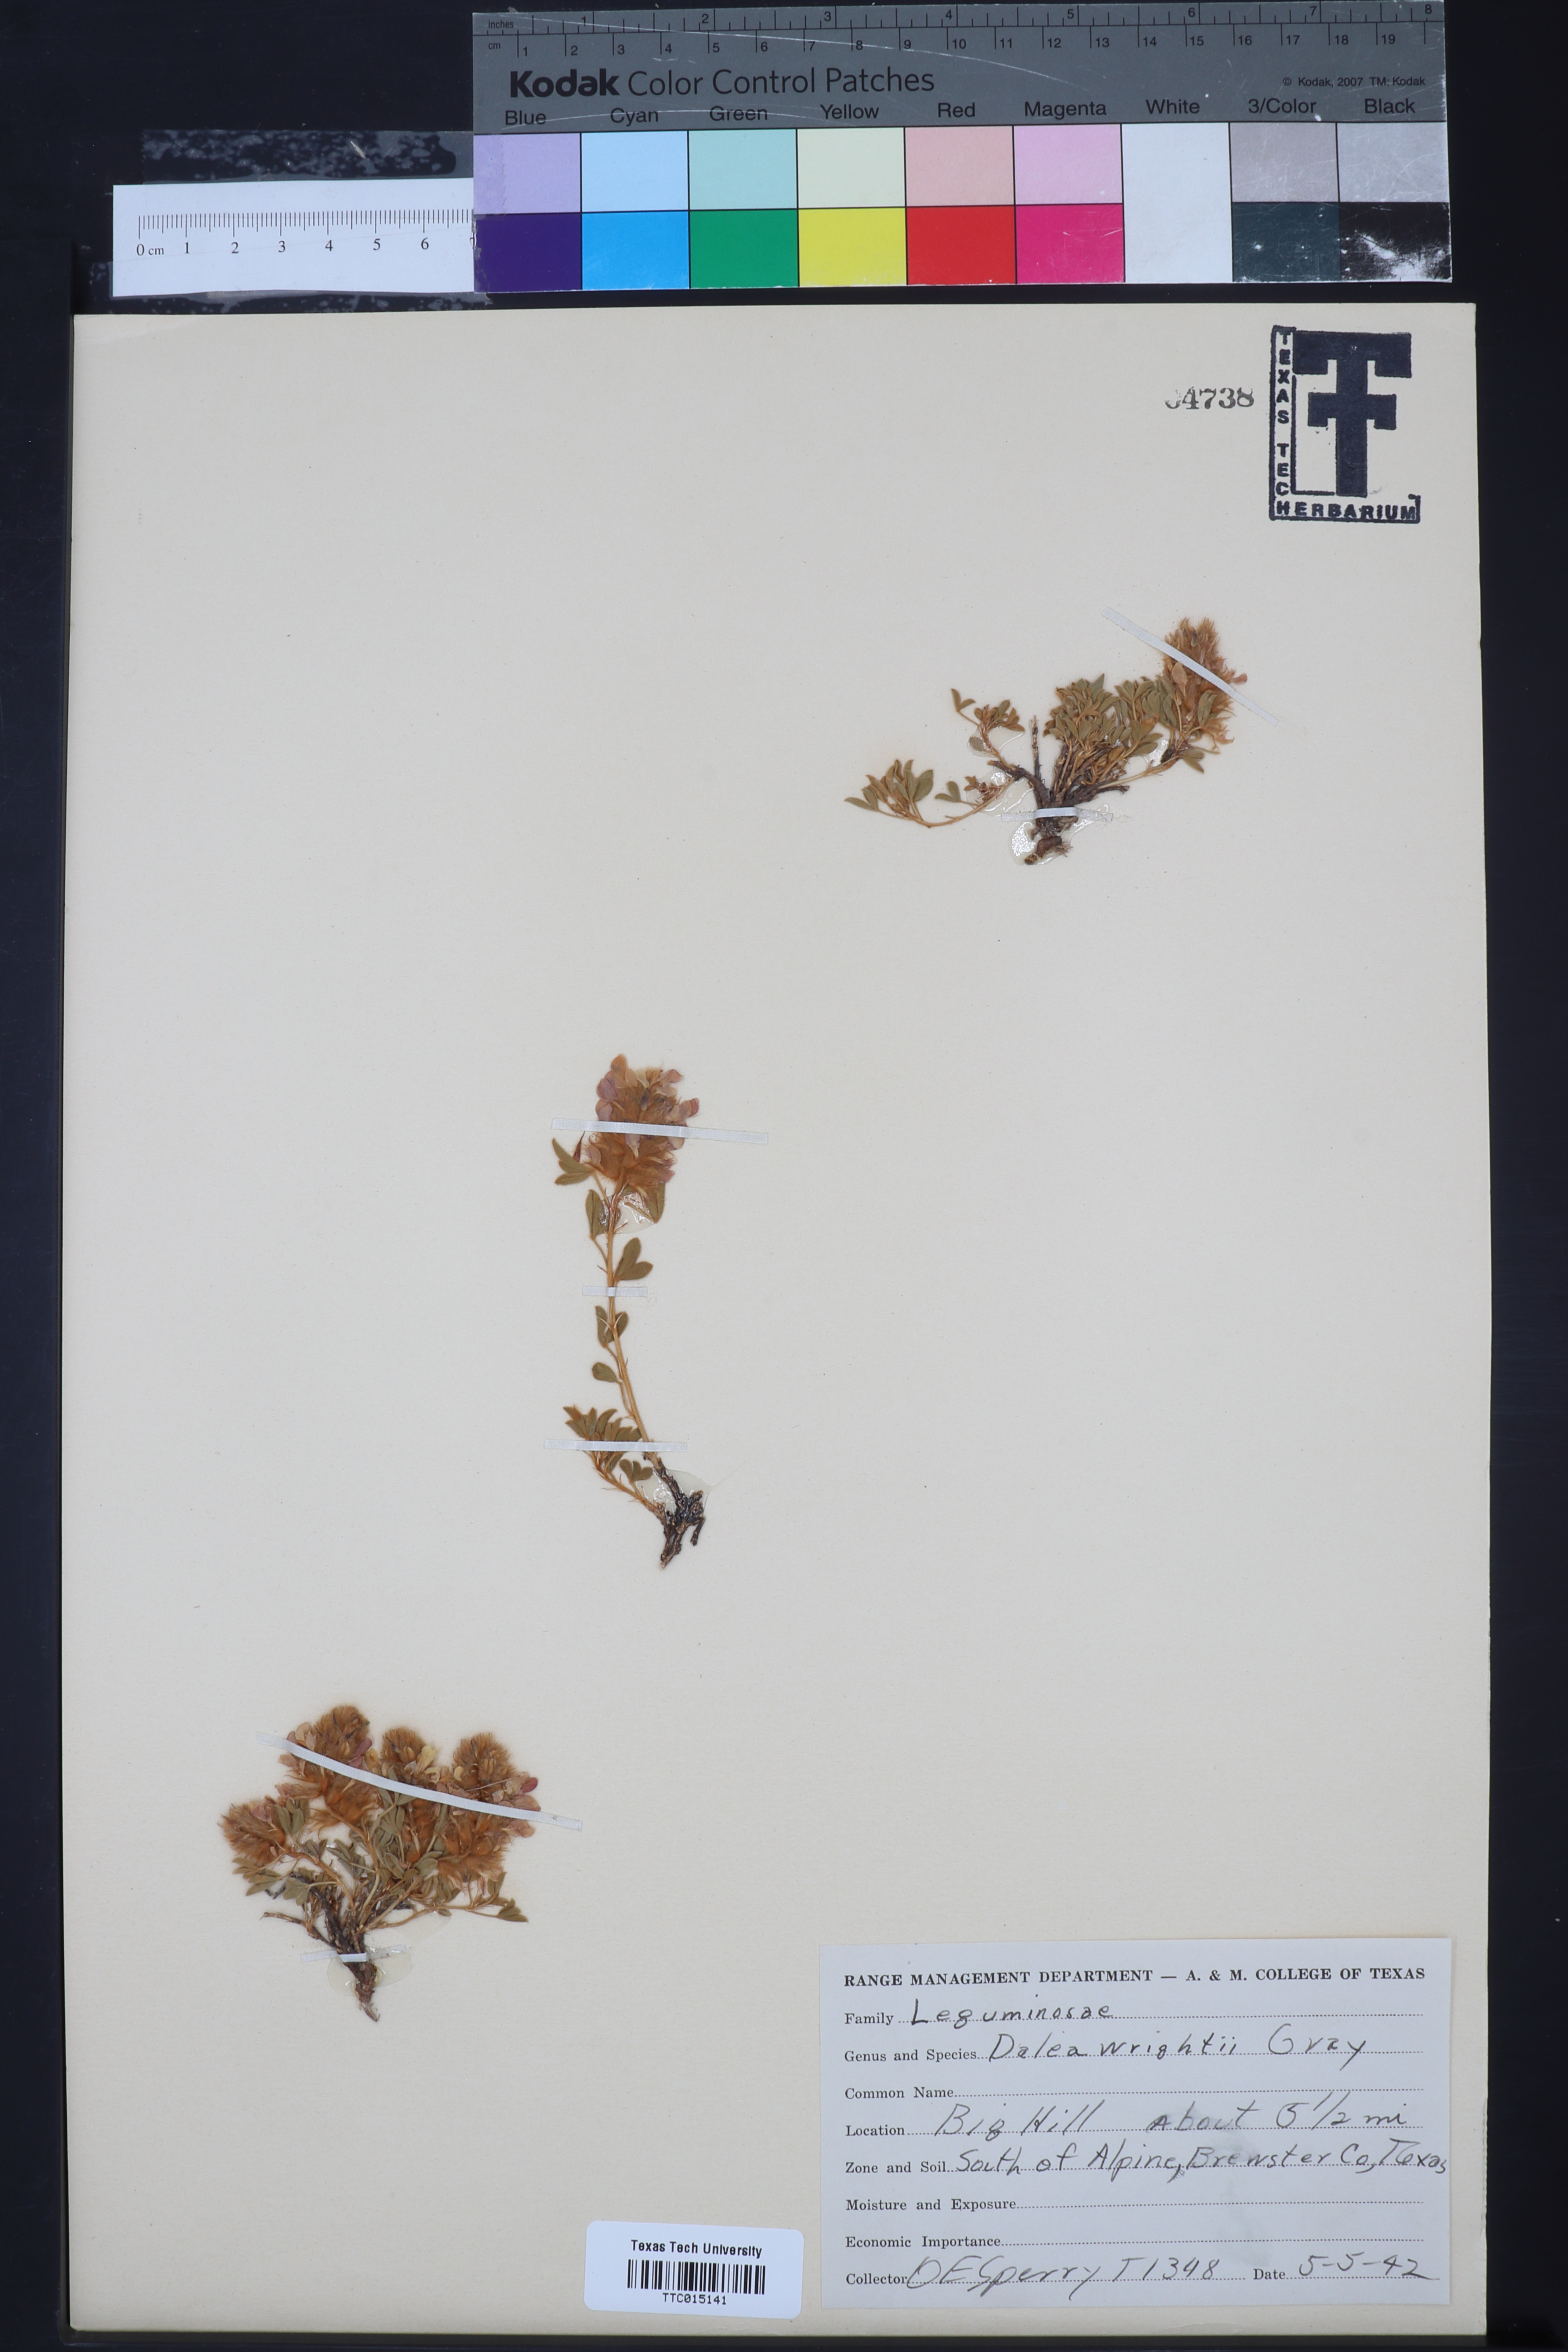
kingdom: Plantae
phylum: Tracheophyta
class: Magnoliopsida
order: Fabales
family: Fabaceae
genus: Dalea
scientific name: Dalea wrightii
